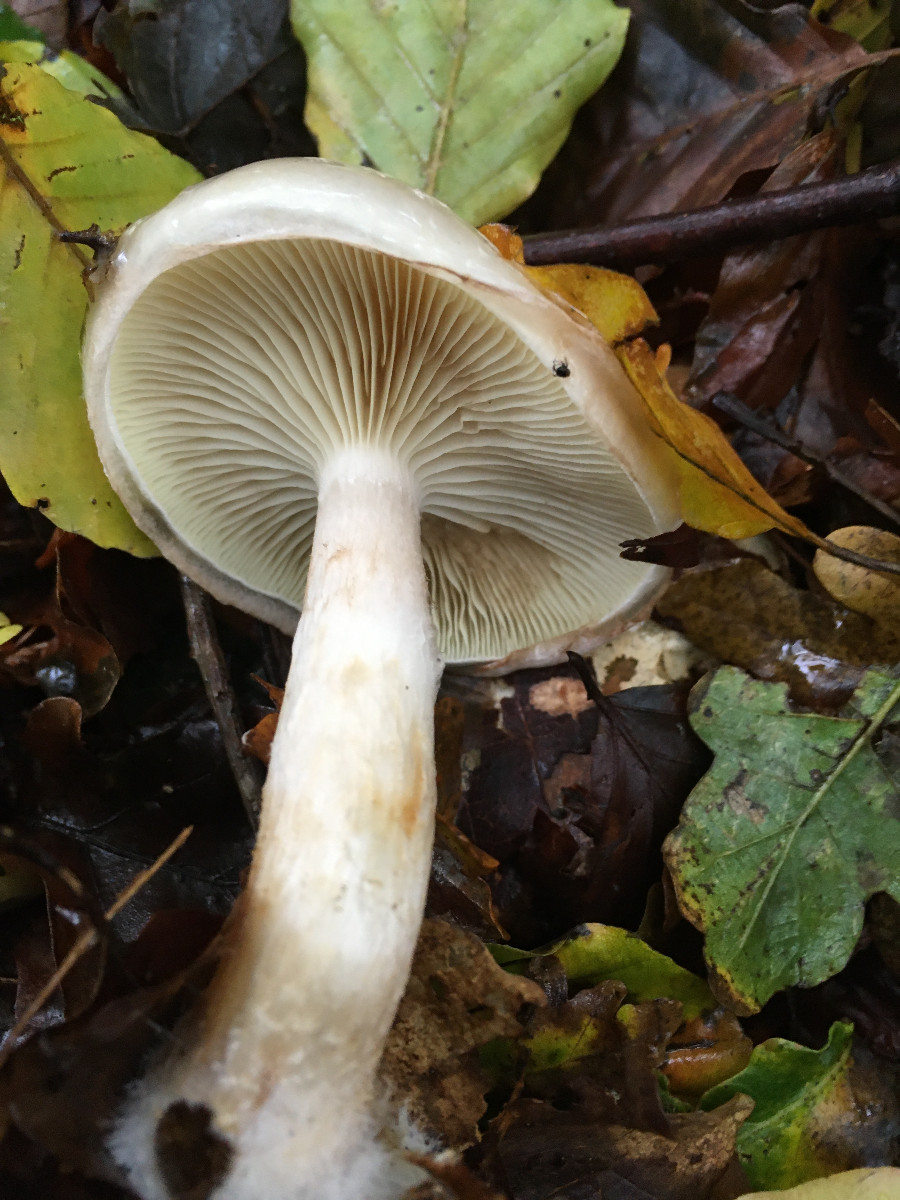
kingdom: Fungi
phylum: Basidiomycota
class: Agaricomycetes
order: Agaricales
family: Strophariaceae
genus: Pholiota
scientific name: Pholiota lenta
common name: løv-skælhat
